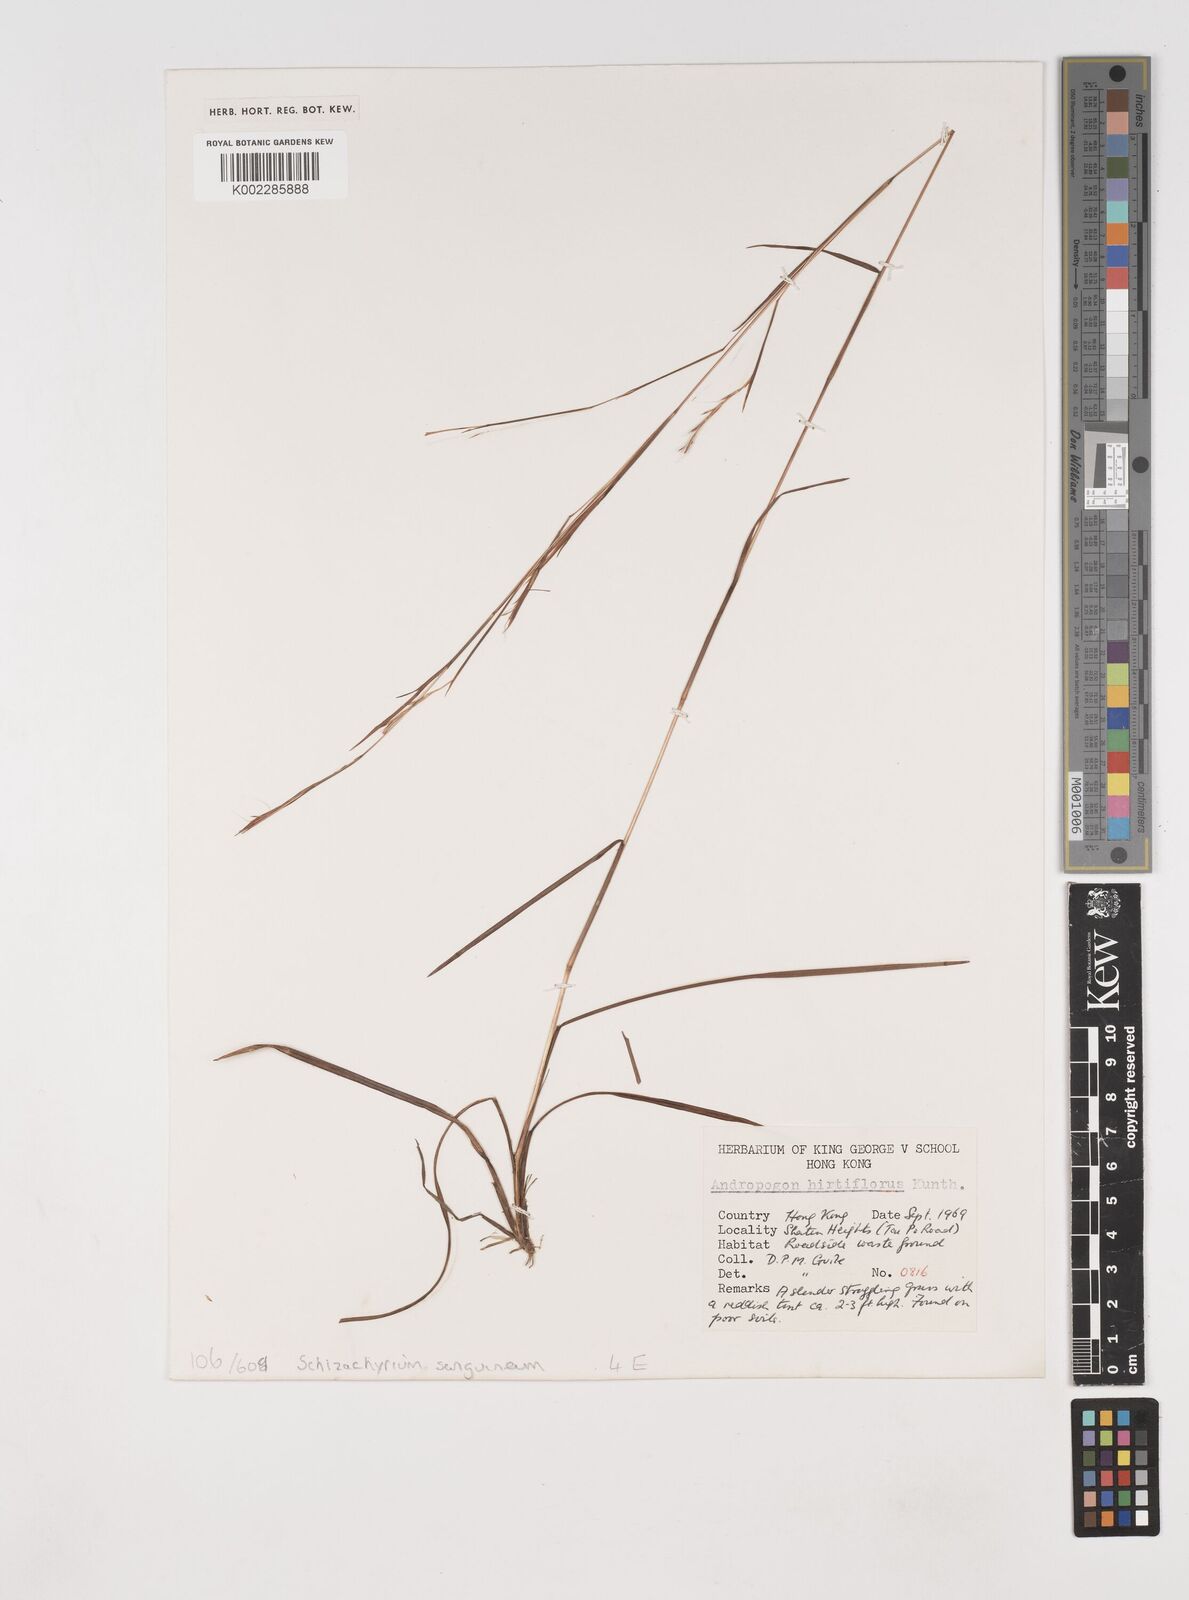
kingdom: Plantae
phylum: Tracheophyta
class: Liliopsida
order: Poales
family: Poaceae
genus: Schizachyrium
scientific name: Schizachyrium sanguineum
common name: Crimson bluestem
